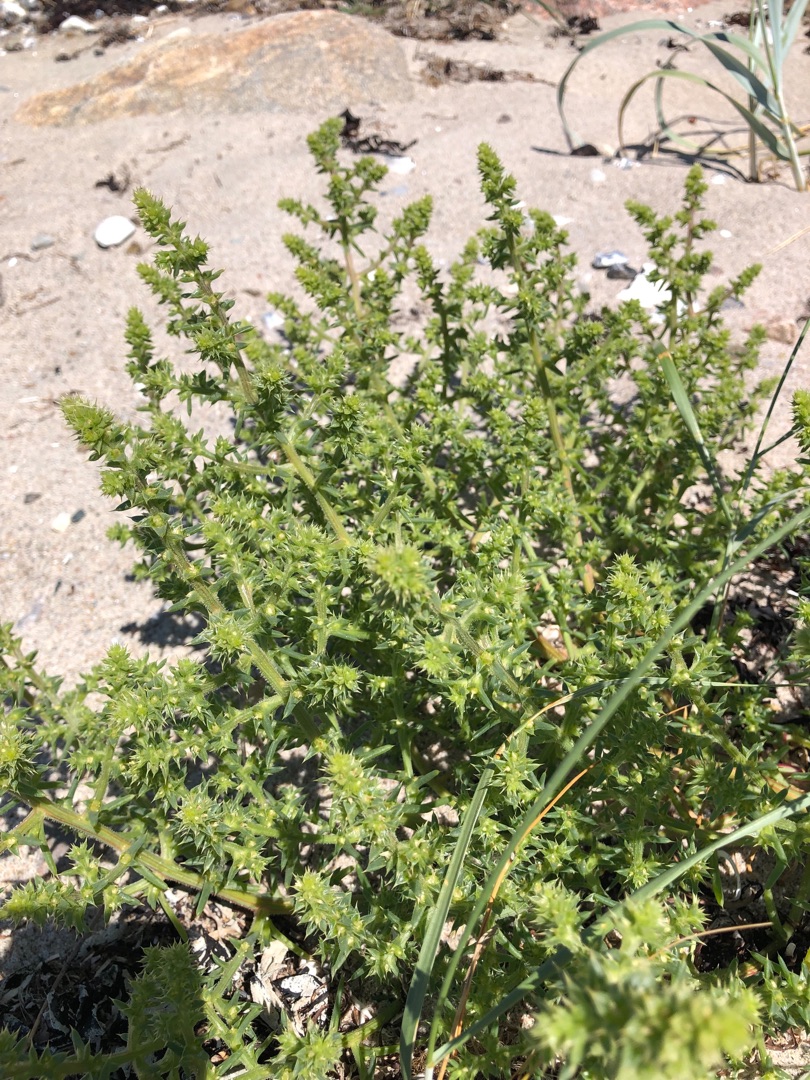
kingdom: Plantae
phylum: Tracheophyta
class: Magnoliopsida
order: Caryophyllales
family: Amaranthaceae
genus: Salsola
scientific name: Salsola kali
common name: Sodaurt
